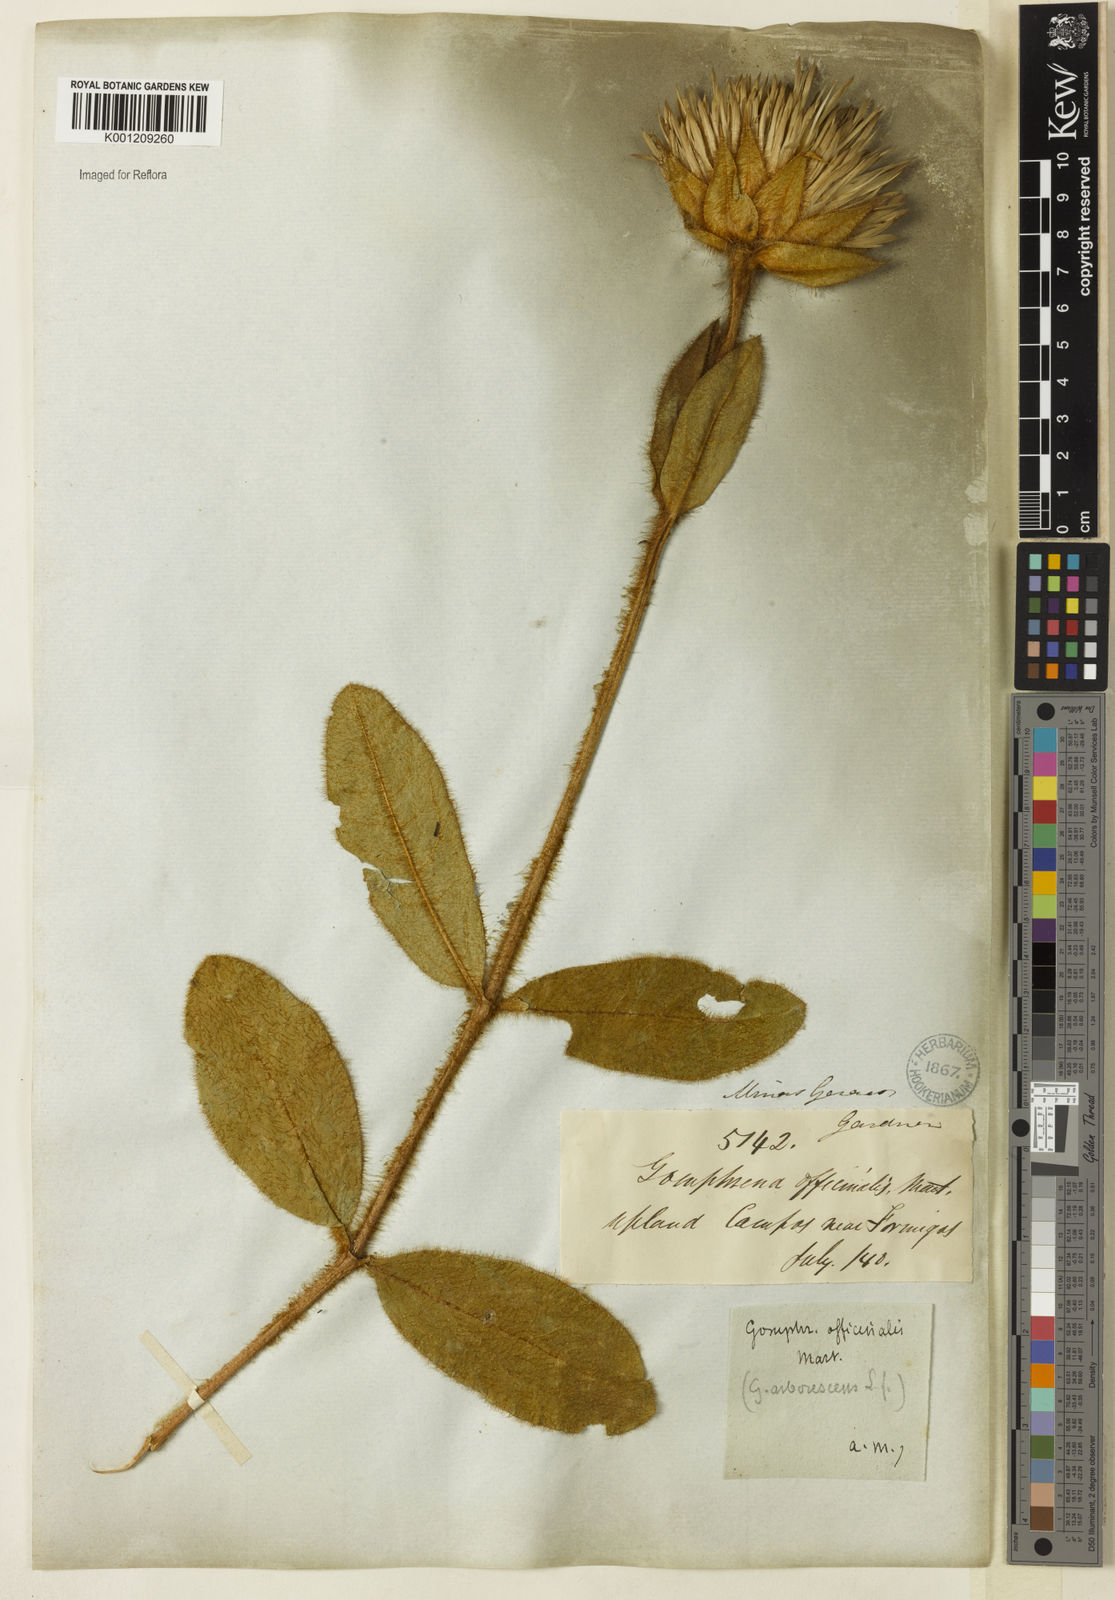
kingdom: Plantae
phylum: Tracheophyta
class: Magnoliopsida
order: Caryophyllales
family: Amaranthaceae
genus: Gomphrena
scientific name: Gomphrena arborescens
